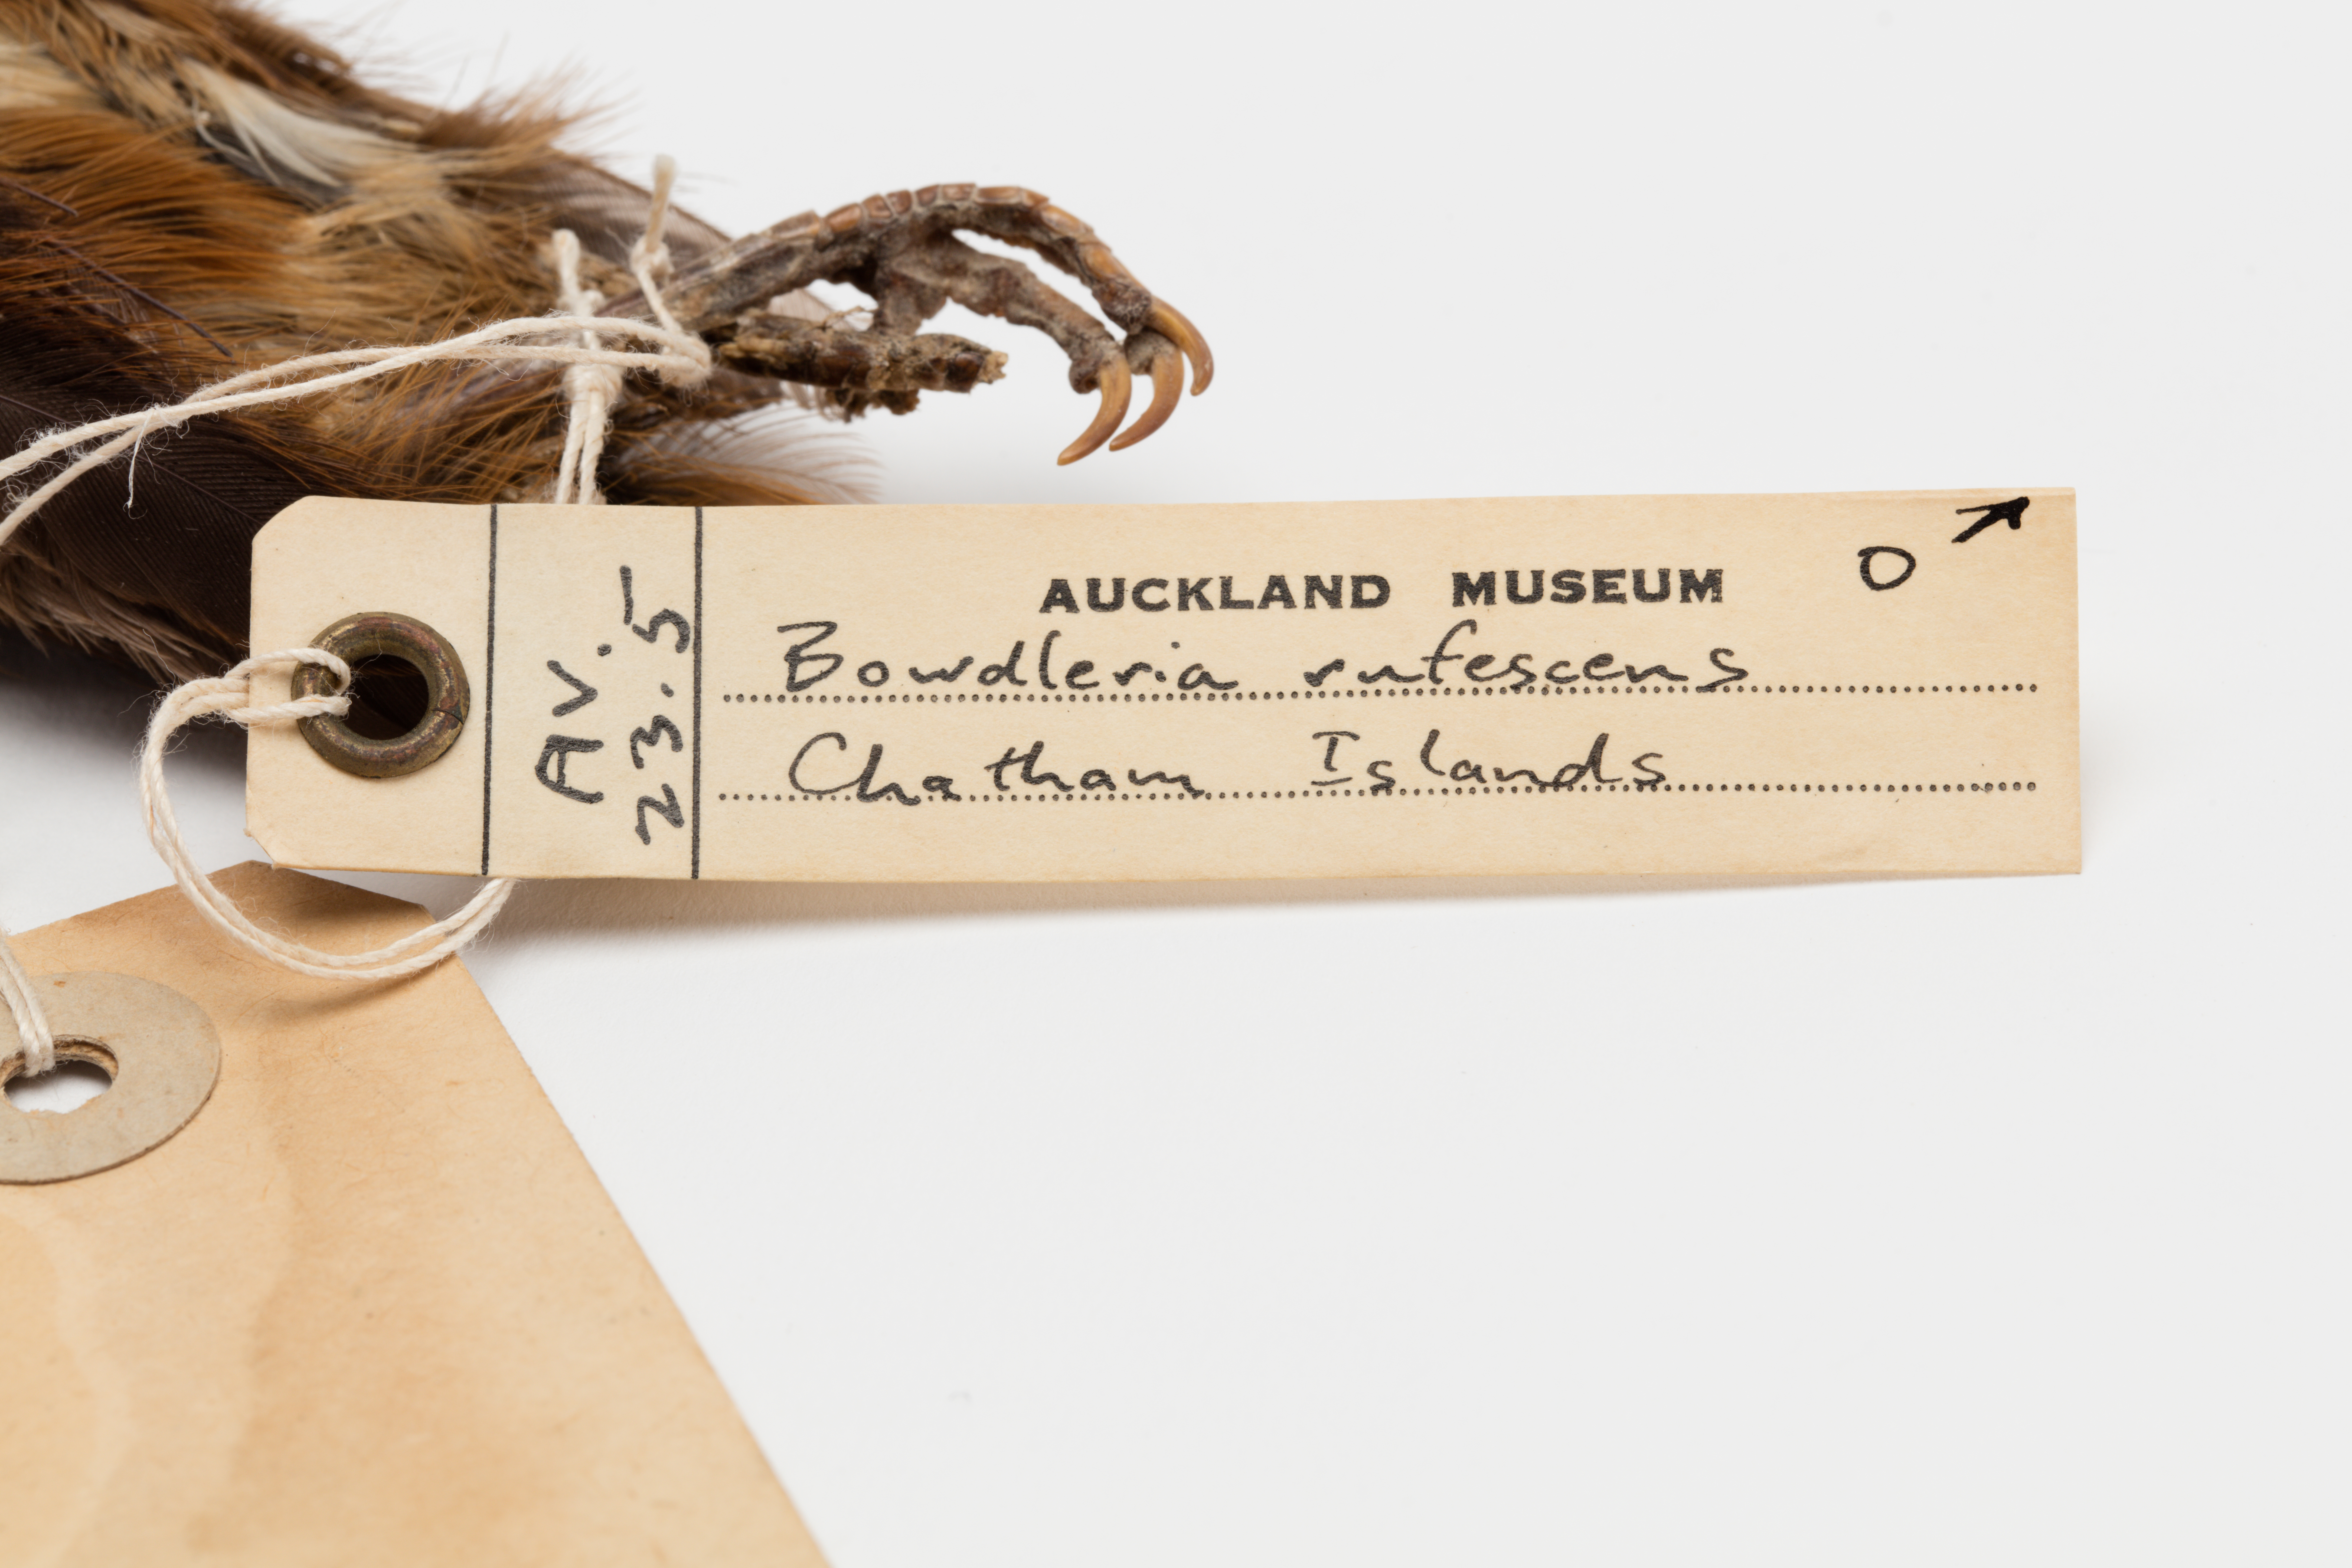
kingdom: Animalia
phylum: Chordata
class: Aves
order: Passeriformes
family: Locustellidae
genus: Megalurus
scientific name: Megalurus rufescens
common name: Chatham fernbird
